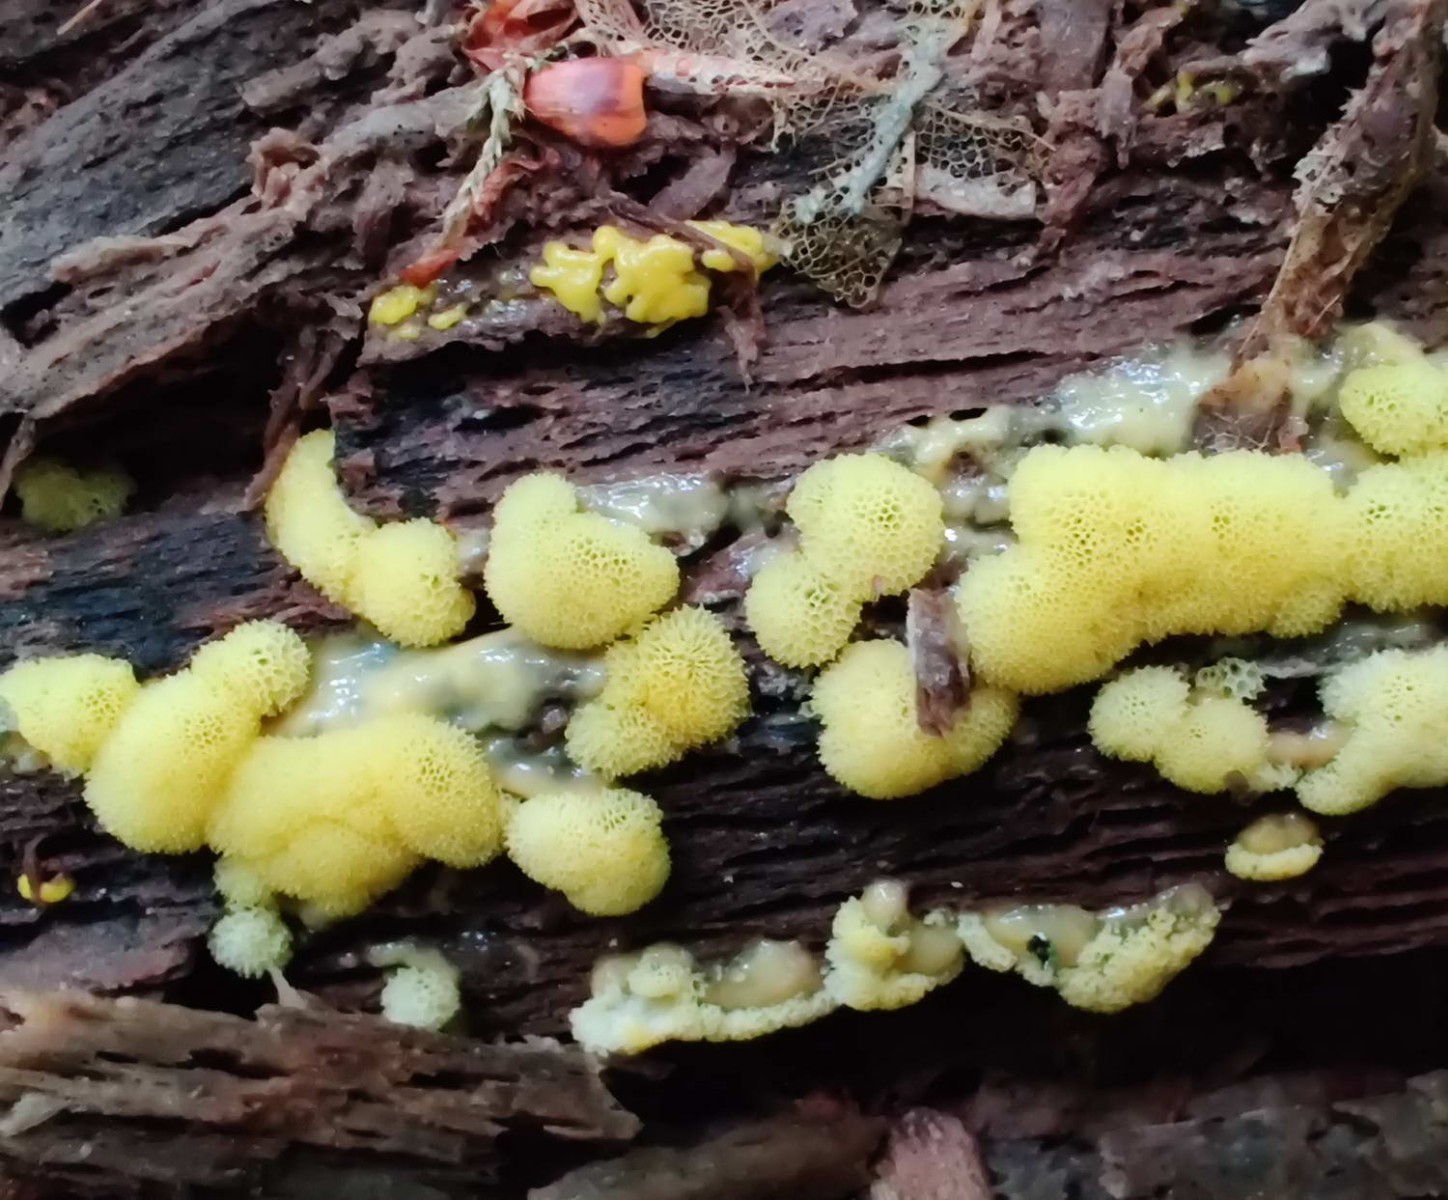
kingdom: Protozoa
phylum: Mycetozoa
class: Protosteliomycetes
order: Ceratiomyxales
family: Ceratiomyxaceae
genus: Ceratiomyxa
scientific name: Ceratiomyxa fruticulosa
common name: Honeycomb coral slime mold
